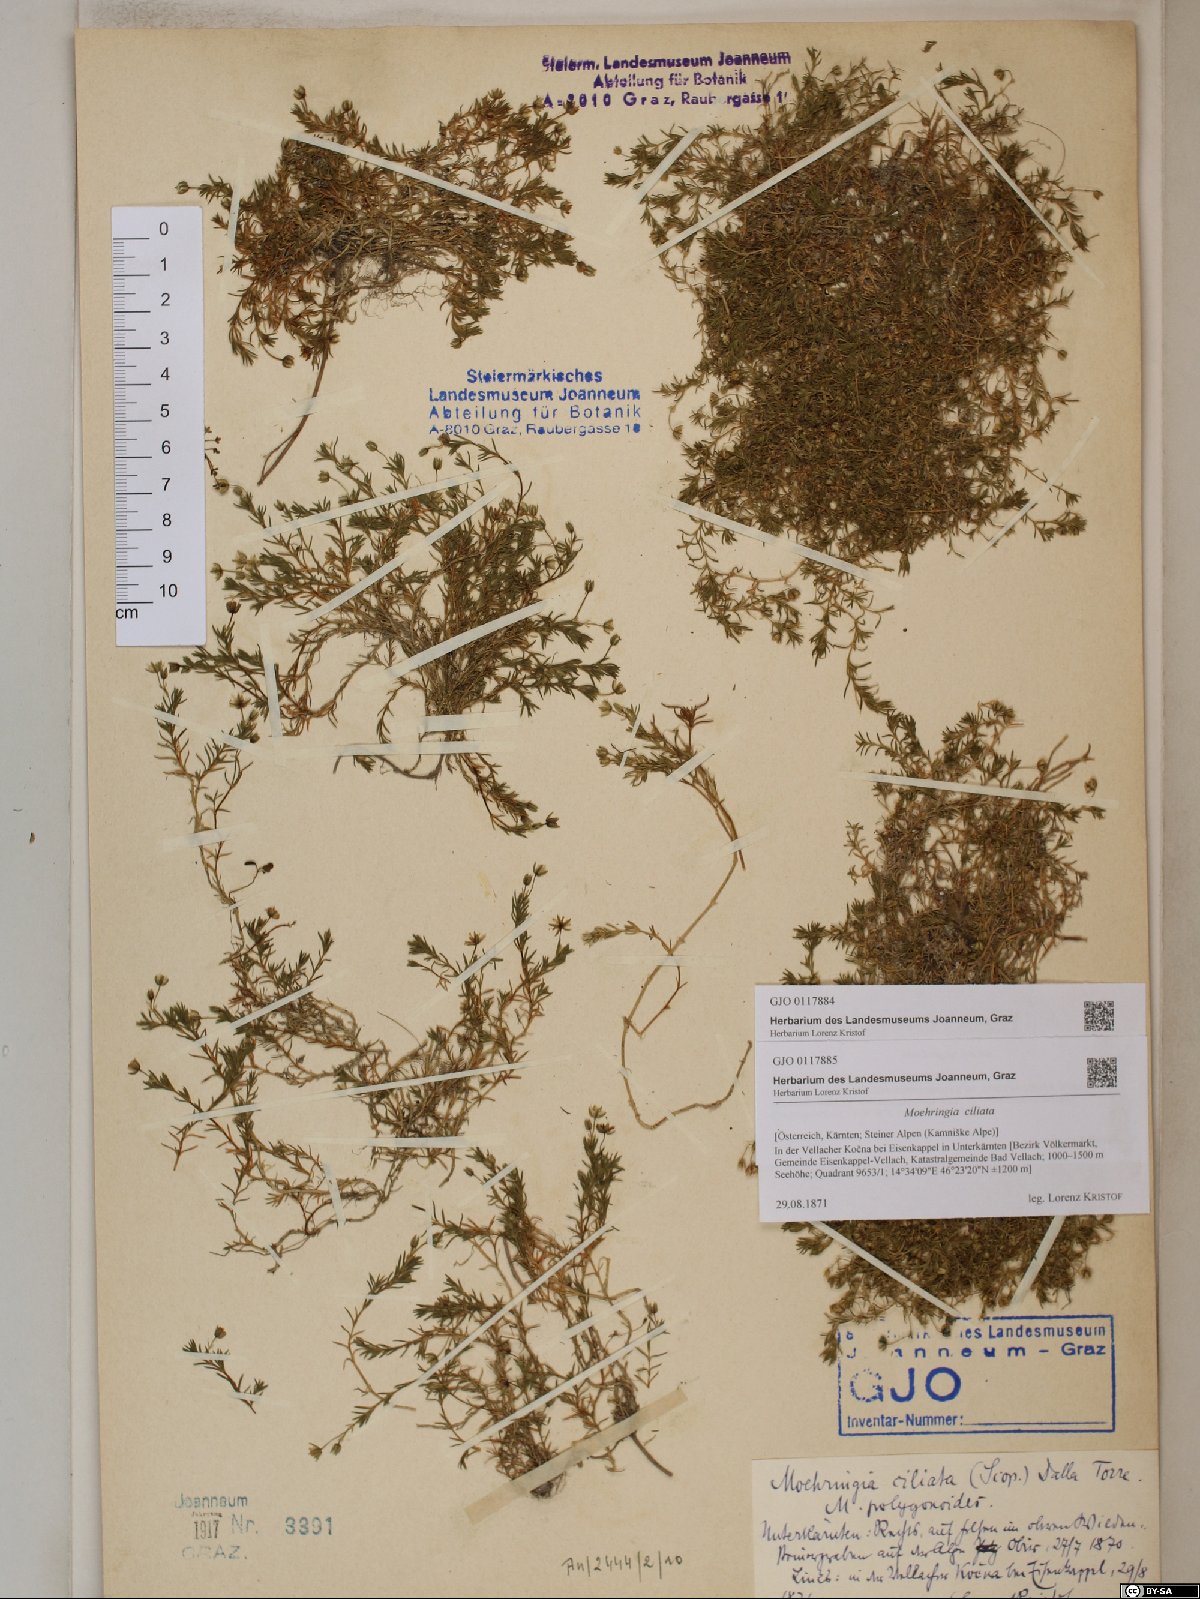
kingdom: Plantae
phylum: Tracheophyta
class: Magnoliopsida
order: Caryophyllales
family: Caryophyllaceae
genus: Moehringia
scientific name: Moehringia ciliata
